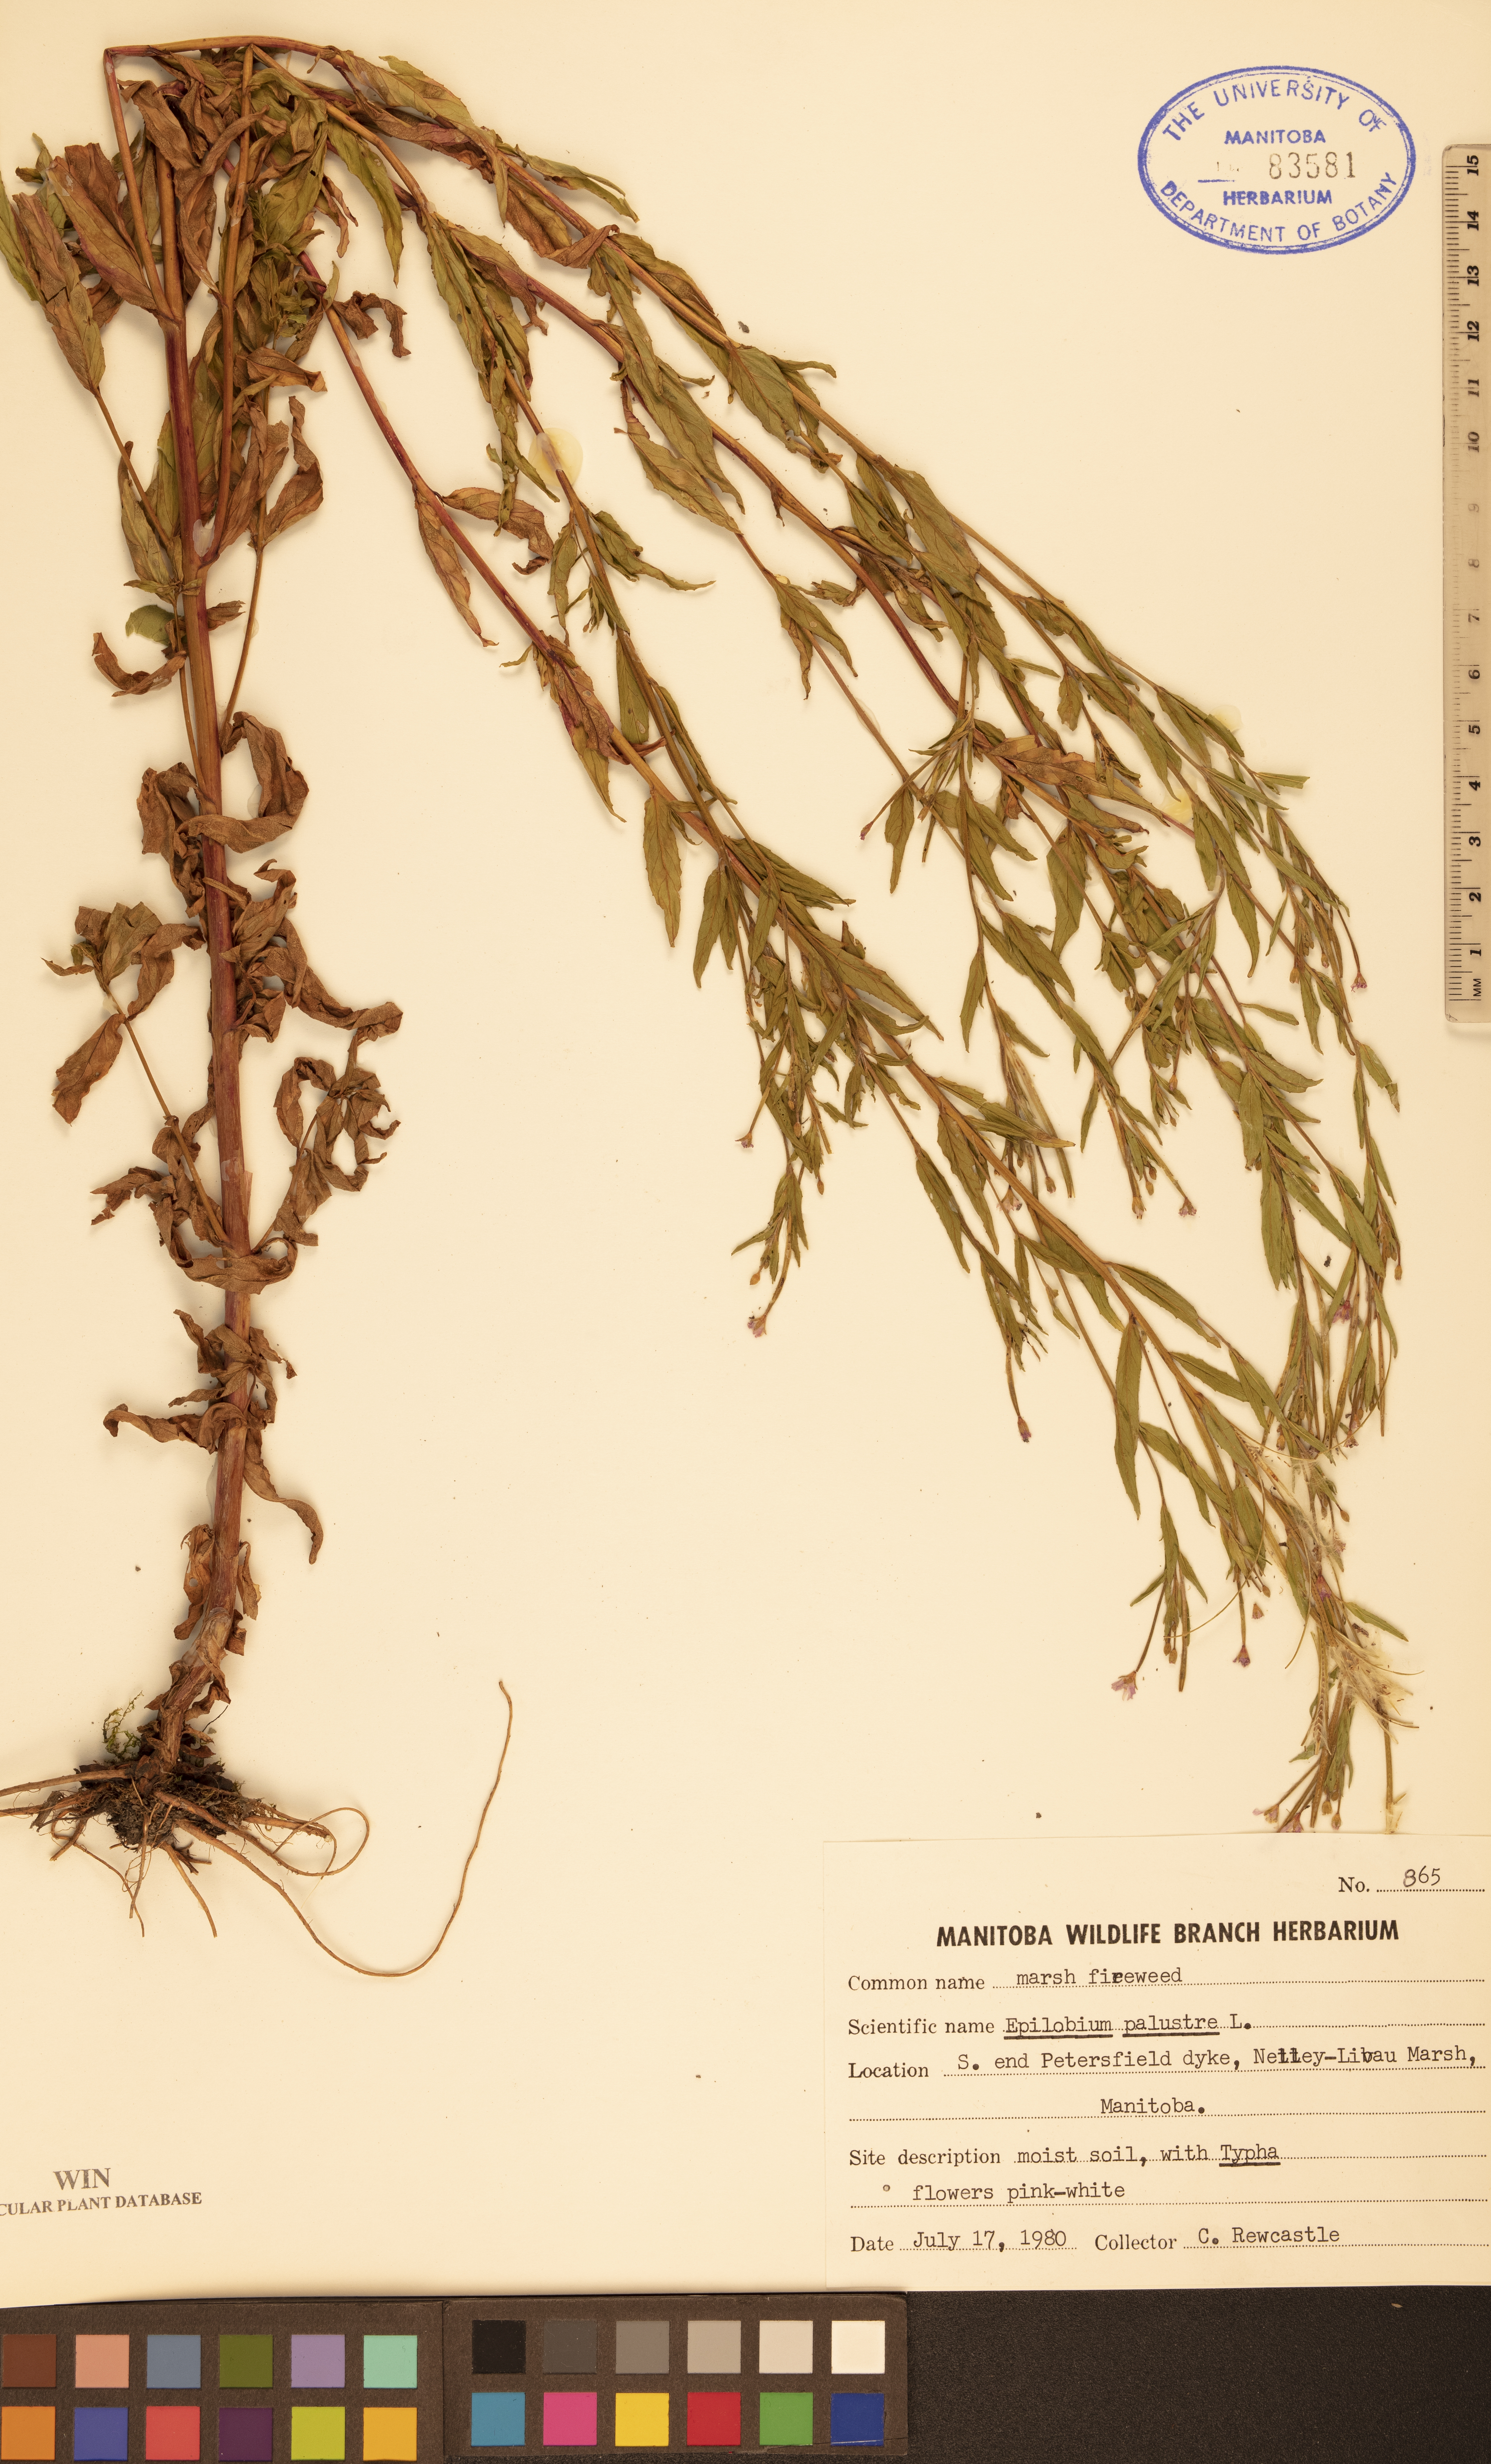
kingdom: Plantae
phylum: Tracheophyta
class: Magnoliopsida
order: Myrtales
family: Onagraceae
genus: Epilobium
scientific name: Epilobium palustre
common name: Marsh willowherb
